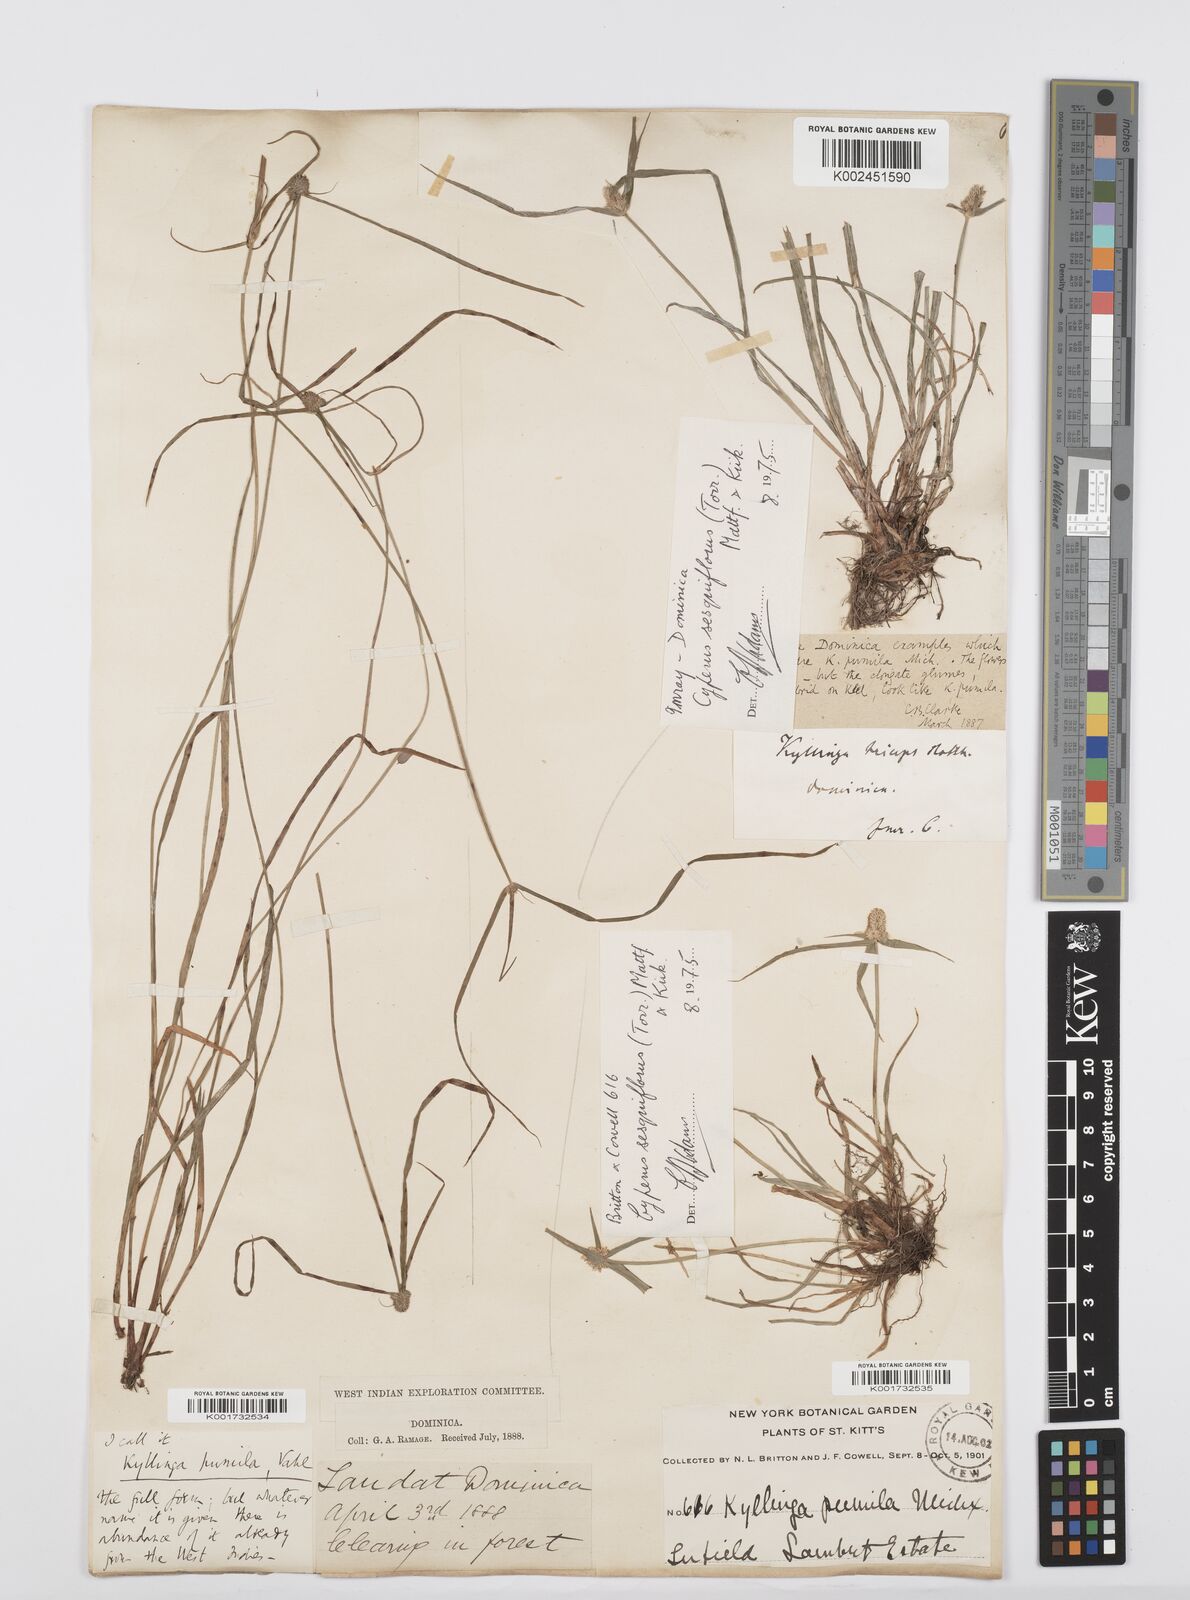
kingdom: Plantae
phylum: Tracheophyta
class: Liliopsida
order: Poales
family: Cyperaceae
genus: Cyperus
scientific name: Cyperus
